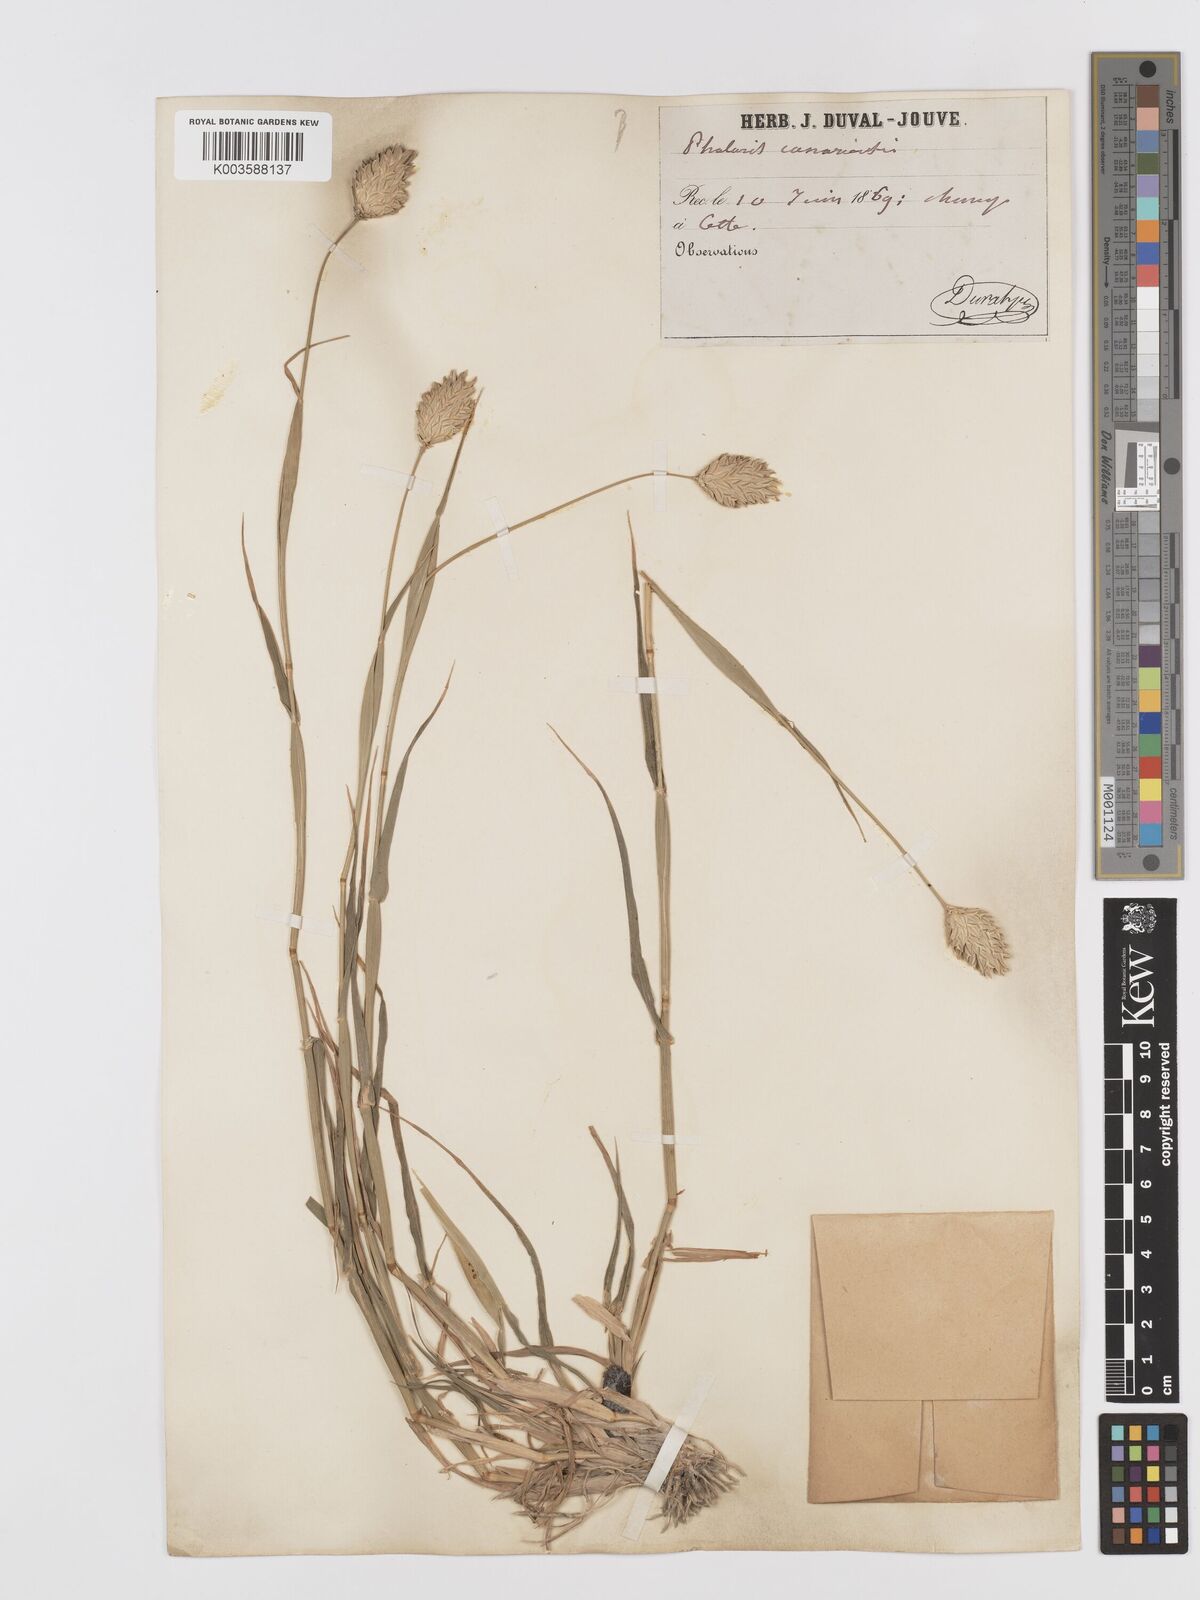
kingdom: Plantae
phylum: Tracheophyta
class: Liliopsida
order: Poales
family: Poaceae
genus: Phalaris
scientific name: Phalaris canariensis
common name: Annual canarygrass
